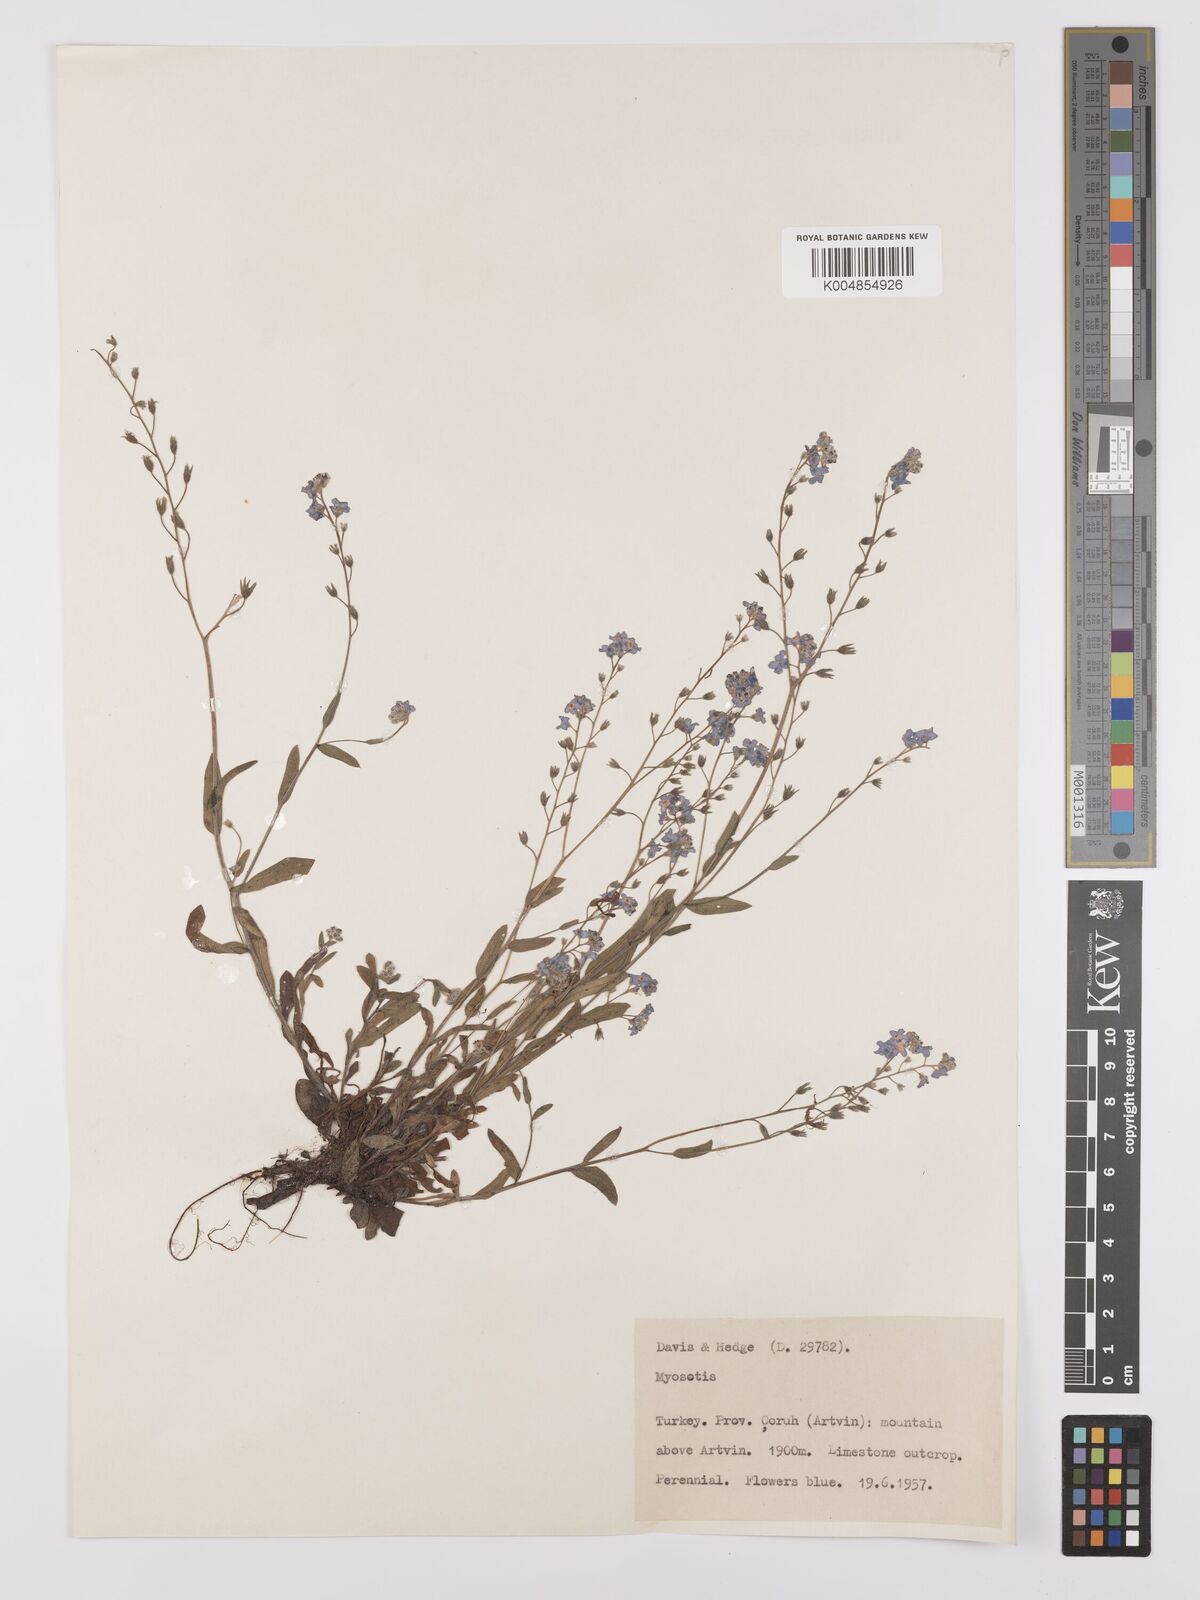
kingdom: Plantae
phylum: Tracheophyta
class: Magnoliopsida
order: Boraginales
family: Boraginaceae
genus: Myosotis
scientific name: Myosotis
